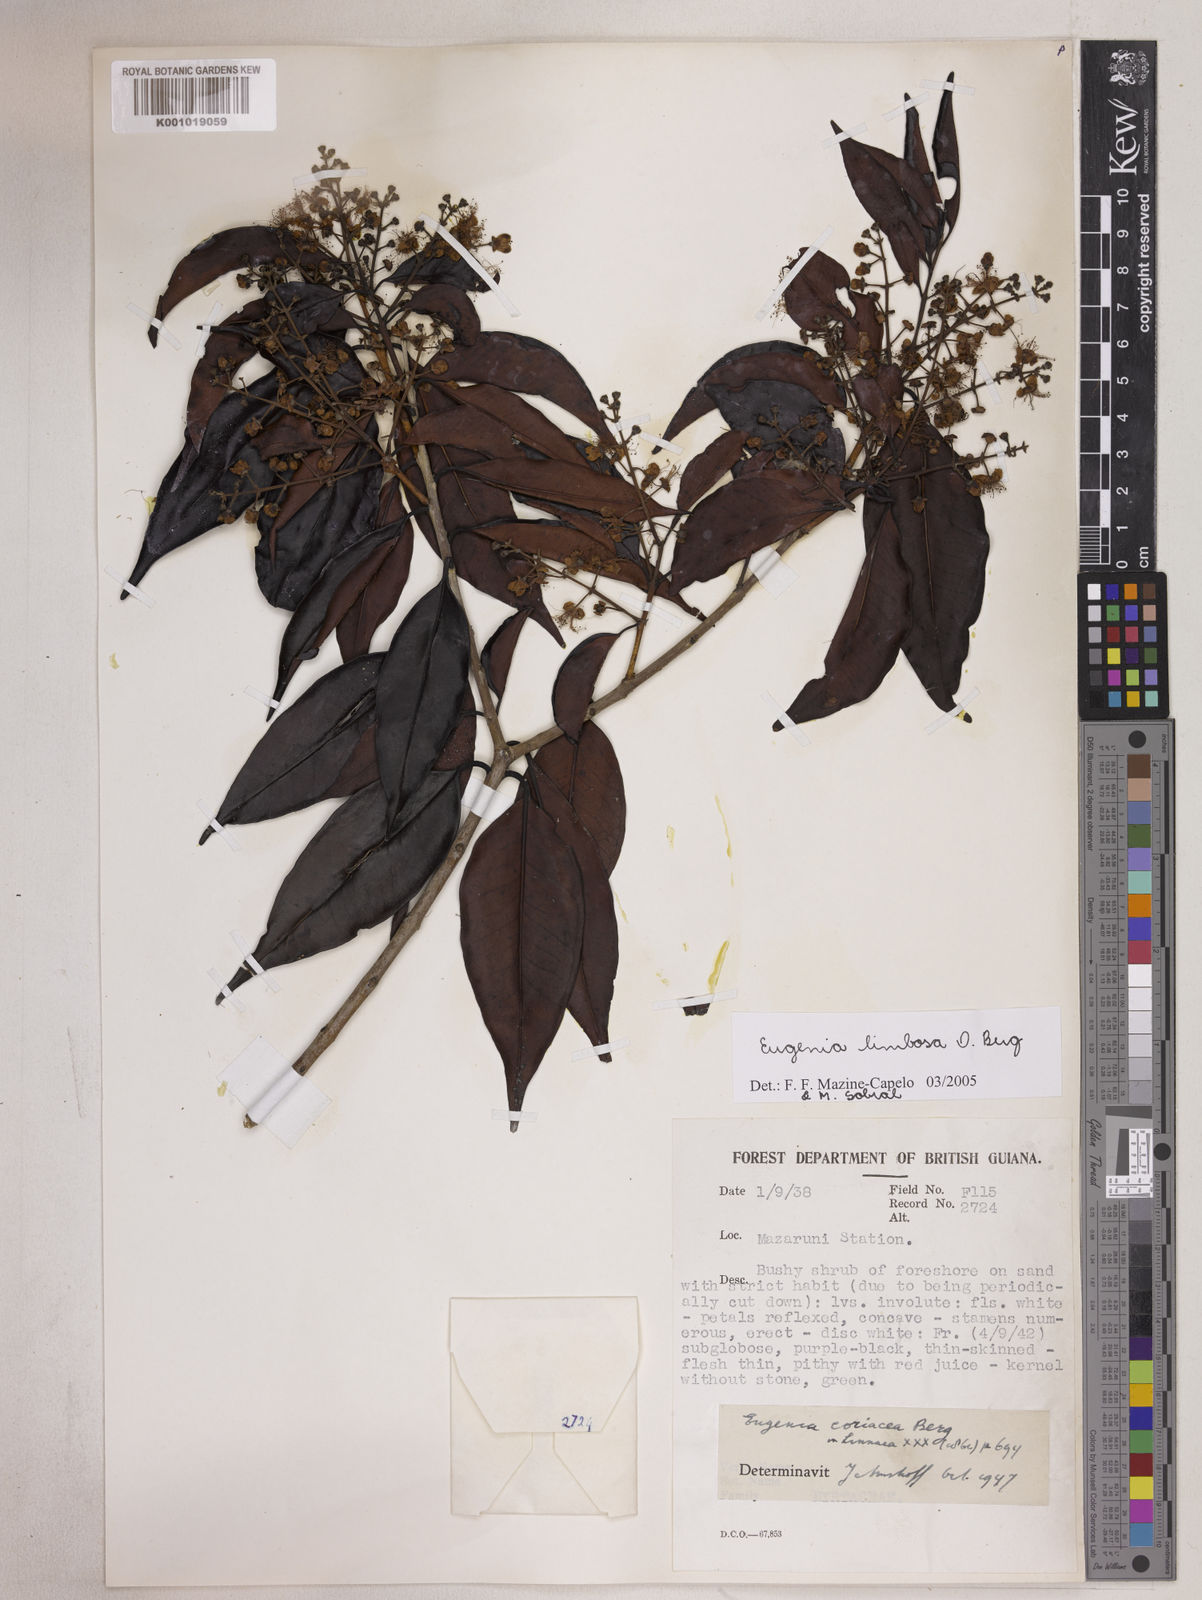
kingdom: Plantae
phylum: Tracheophyta
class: Magnoliopsida
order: Myrtales
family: Myrtaceae
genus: Eugenia
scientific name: Eugenia limbosa
